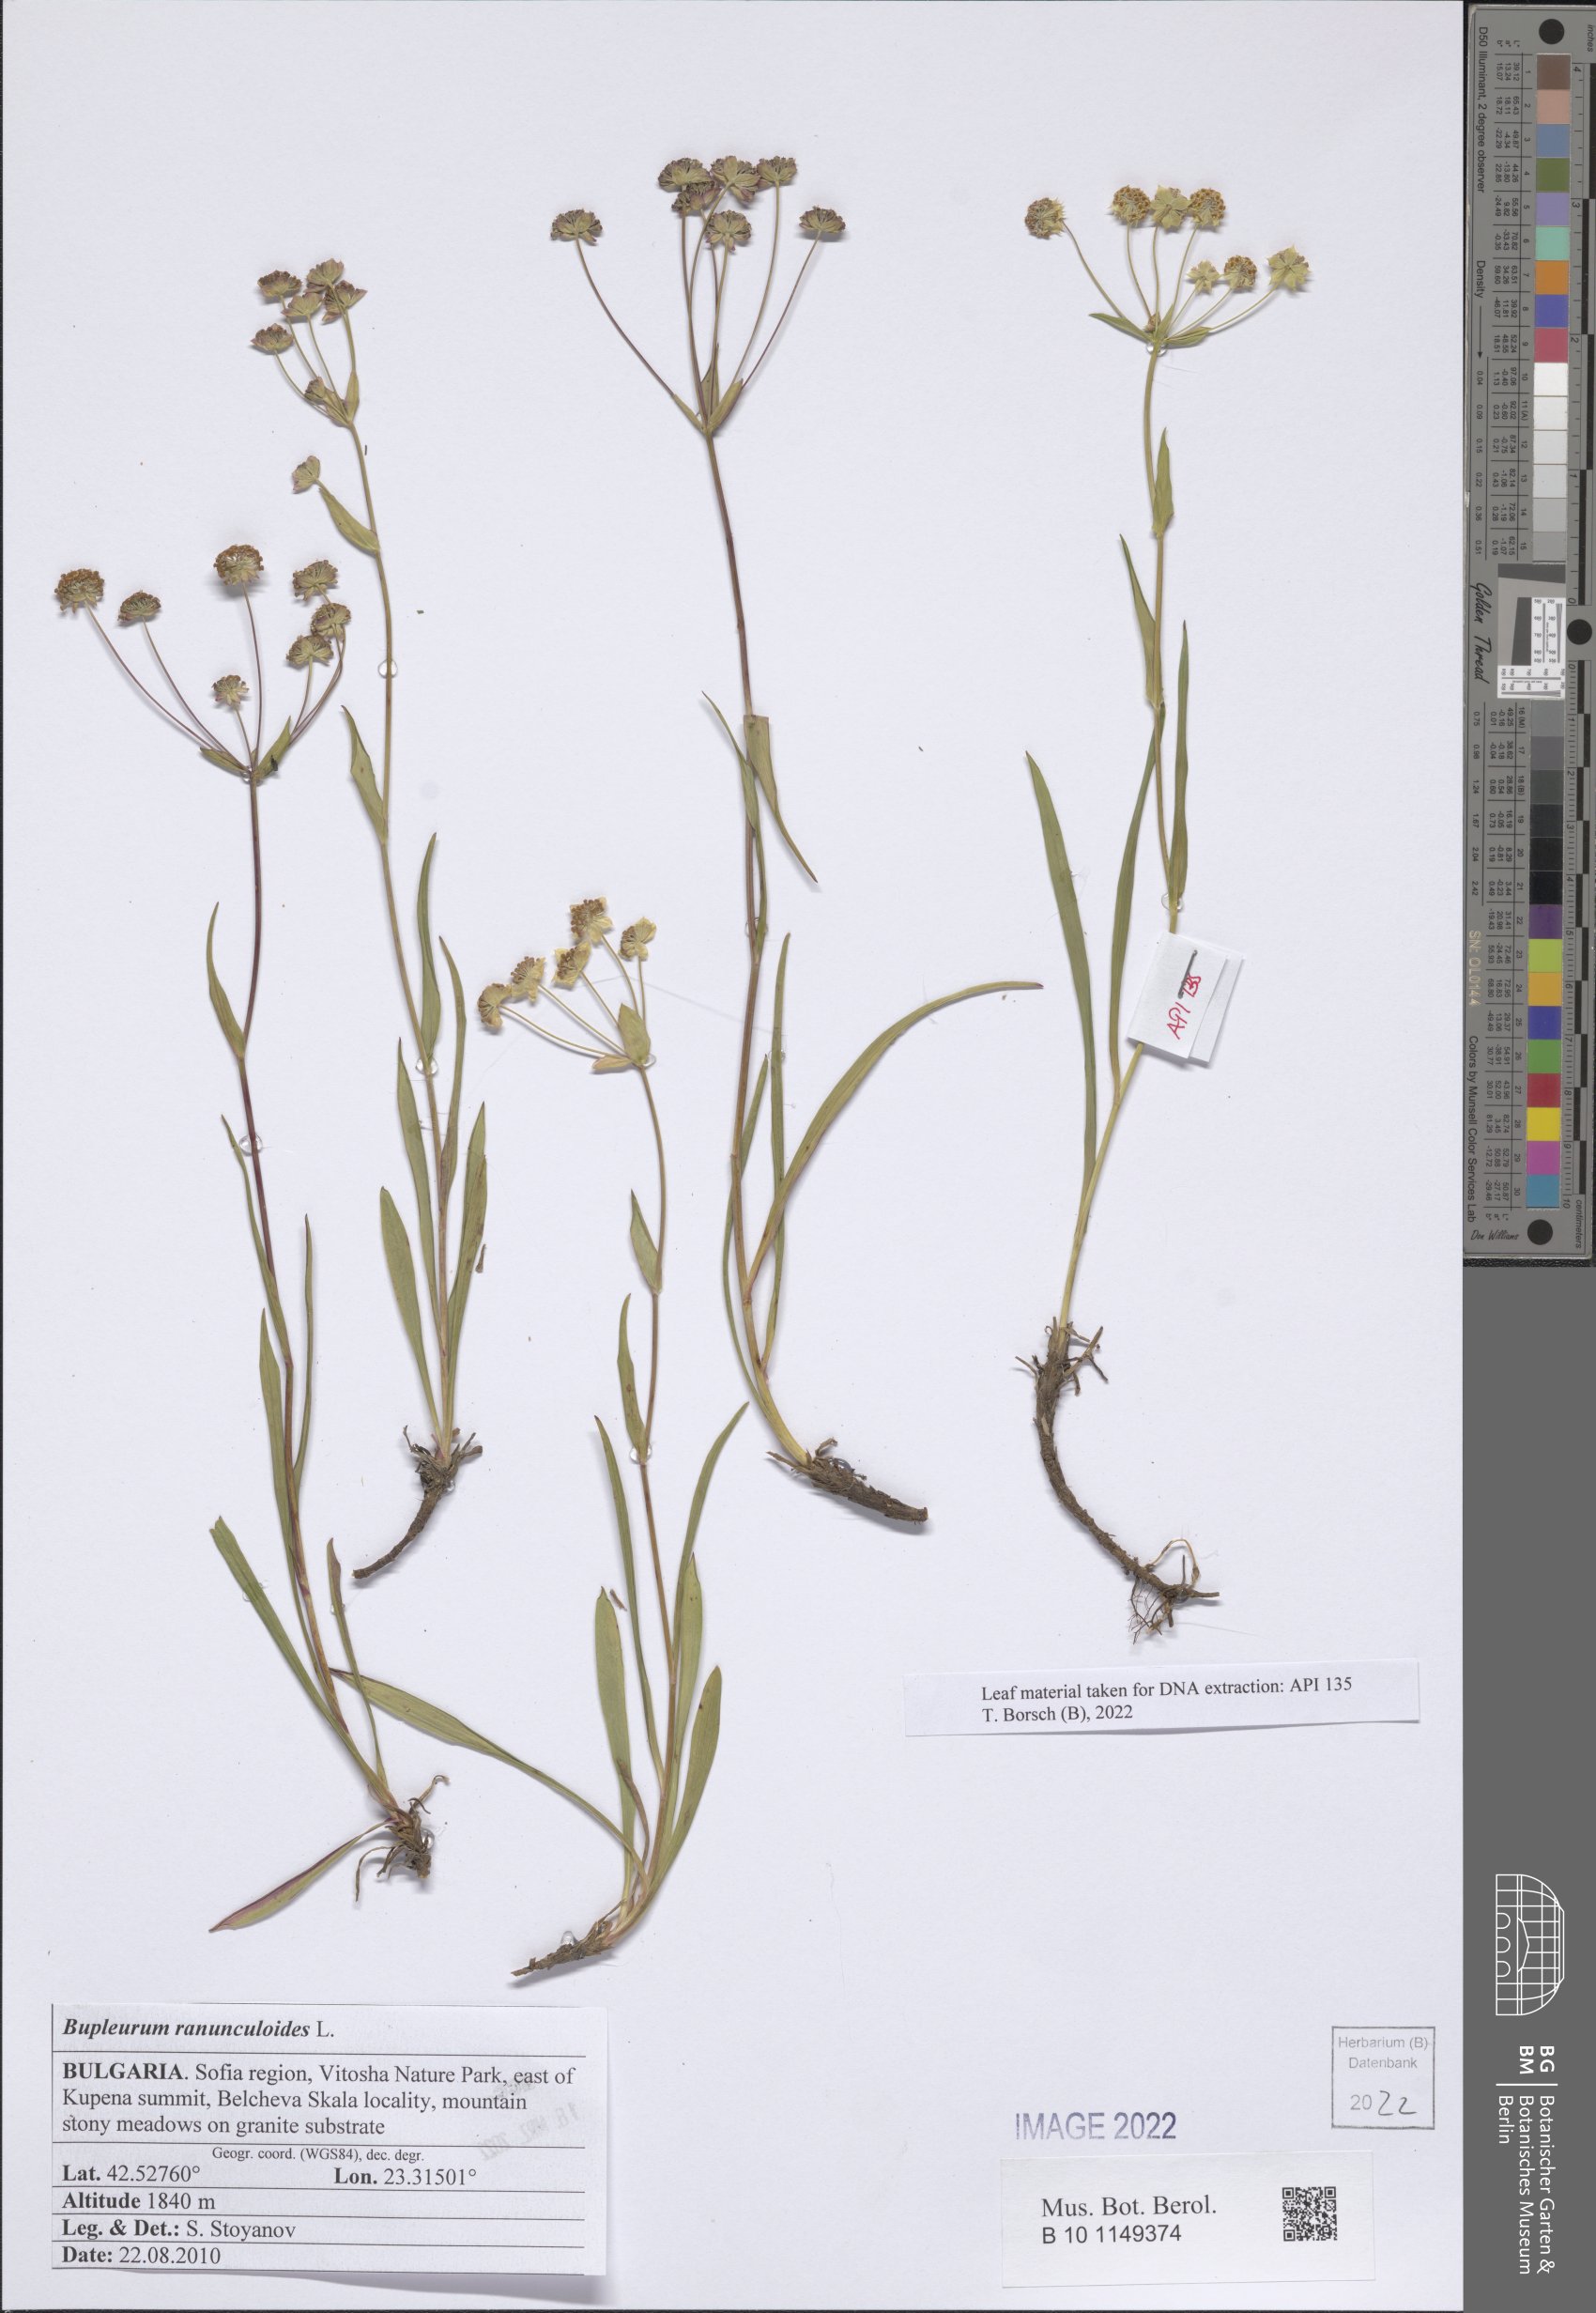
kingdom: Plantae
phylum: Tracheophyta
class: Magnoliopsida
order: Apiales
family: Apiaceae
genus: Bupleurum
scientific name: Bupleurum ranunculoides
